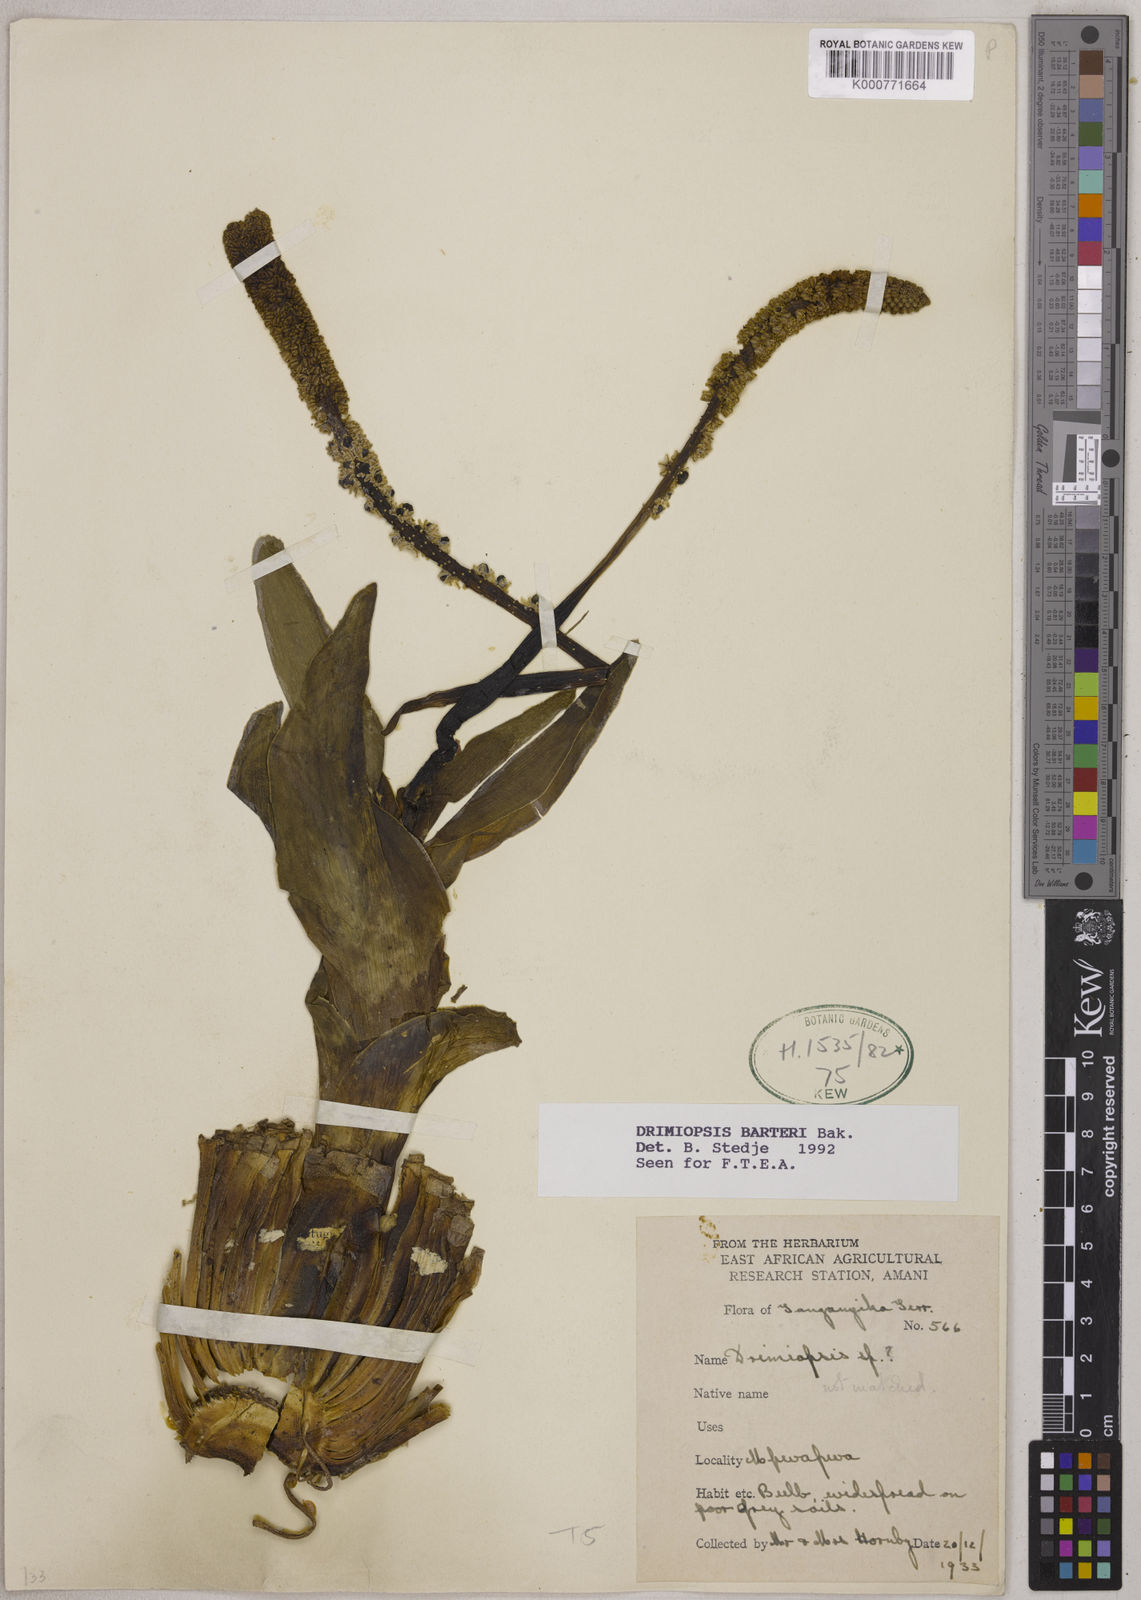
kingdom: Plantae
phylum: Tracheophyta
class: Liliopsida
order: Asparagales
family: Asparagaceae
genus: Drimiopsis
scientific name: Drimiopsis barteri
